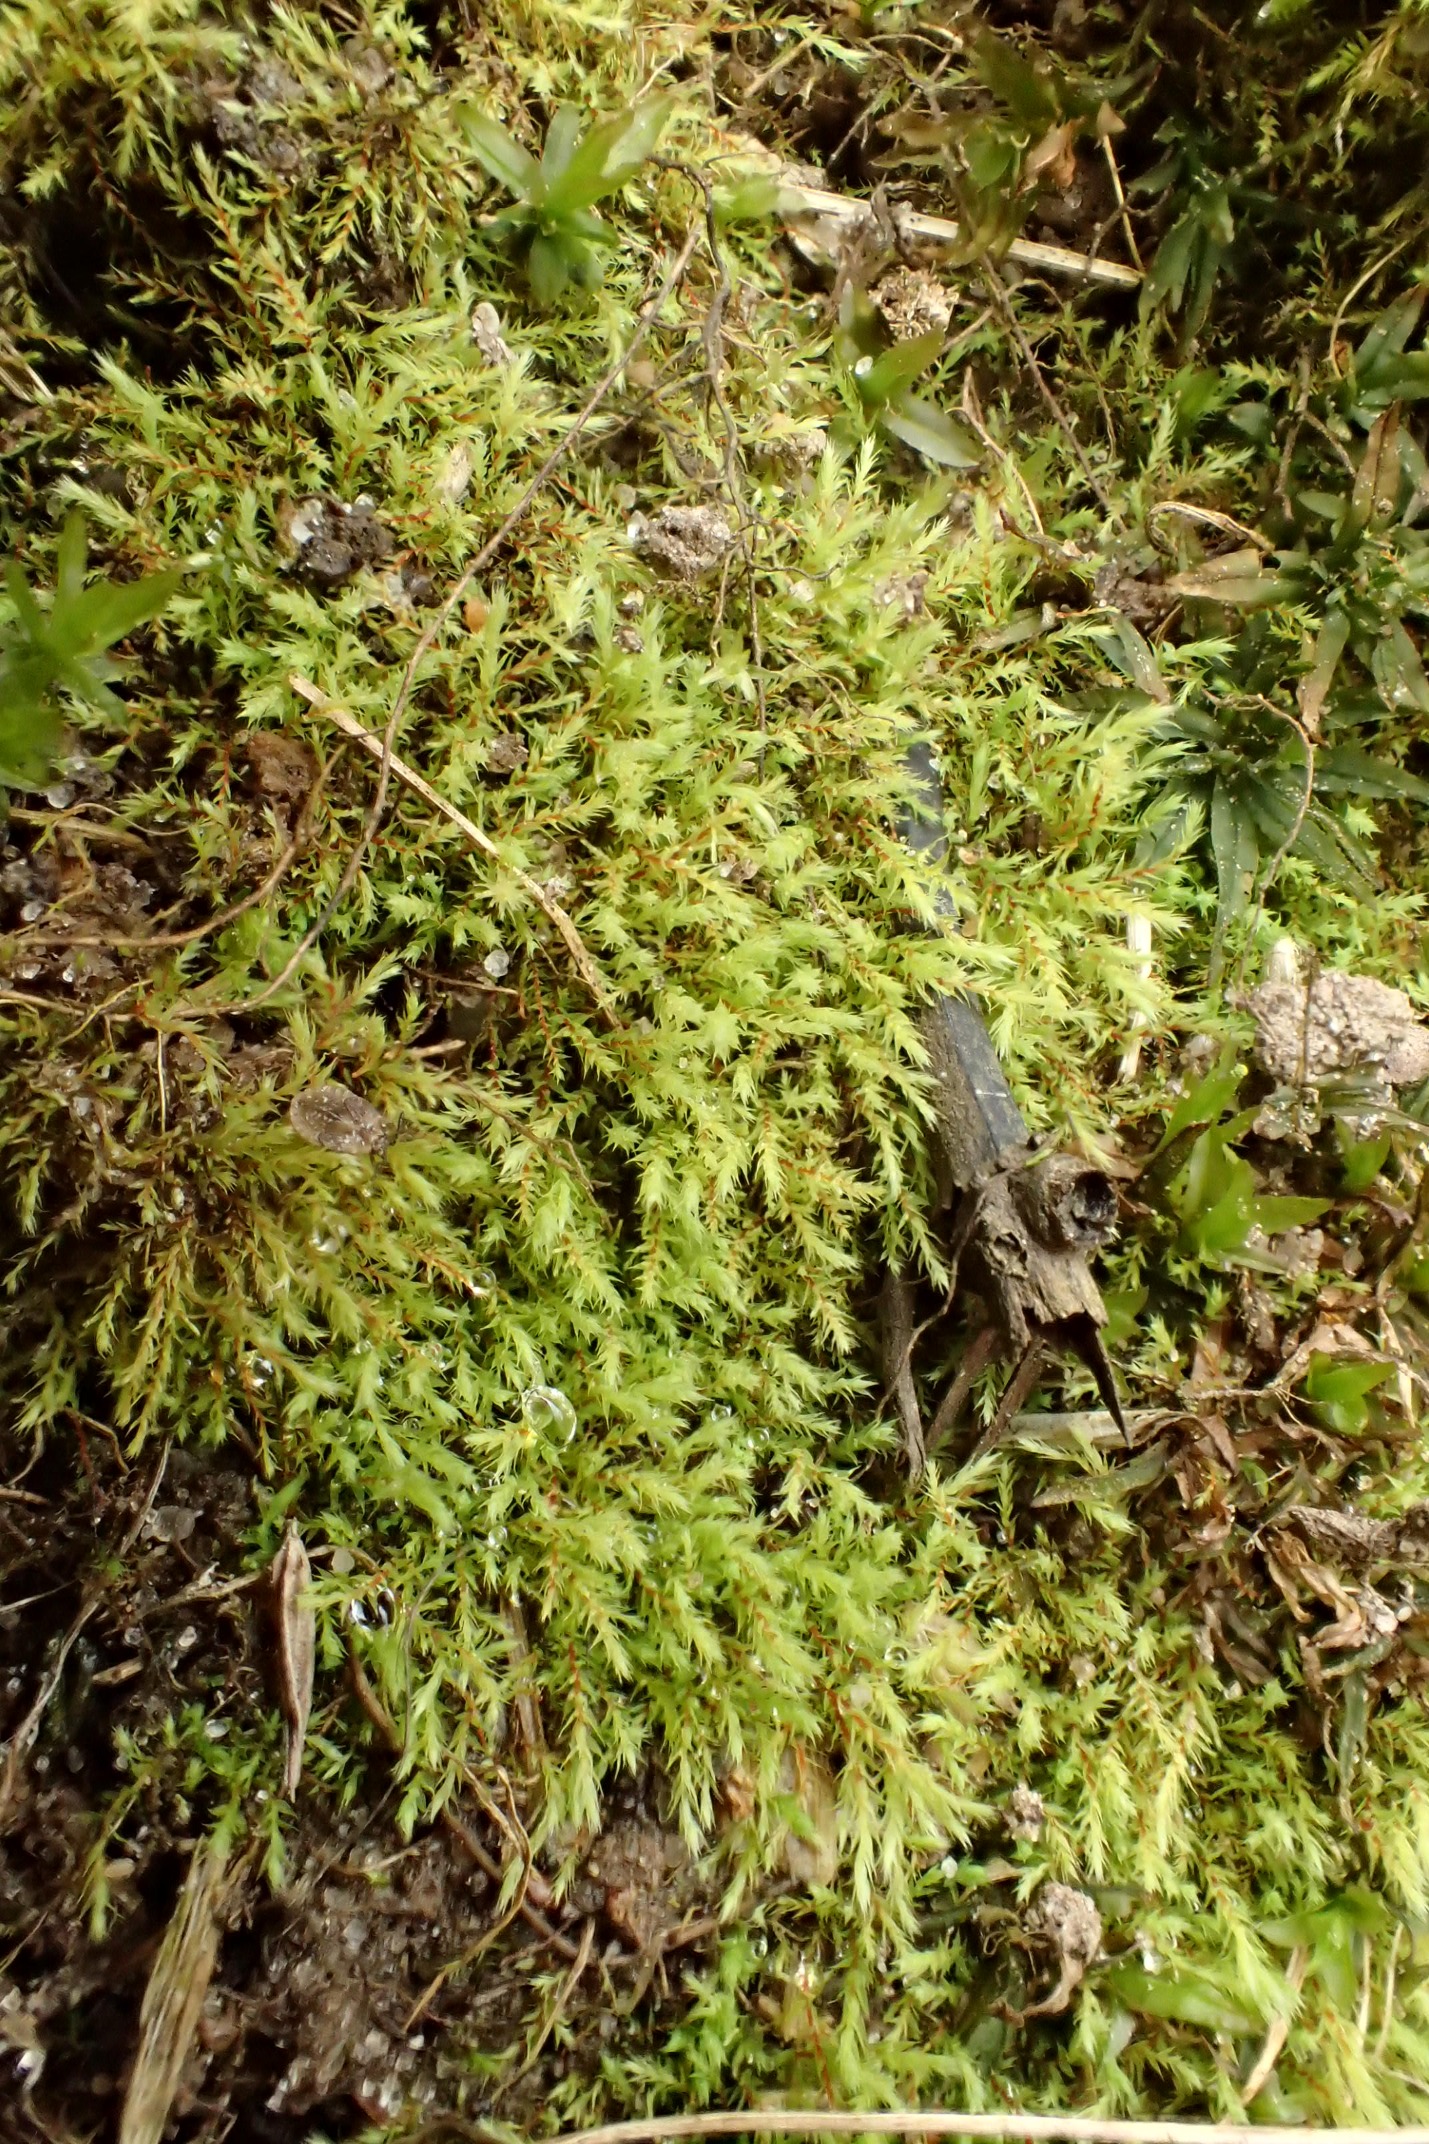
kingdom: Plantae
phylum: Bryophyta
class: Bryopsida
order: Bartramiales
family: Bartramiaceae
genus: Philonotis
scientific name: Philonotis capillaris
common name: Arnells vandtuemos
